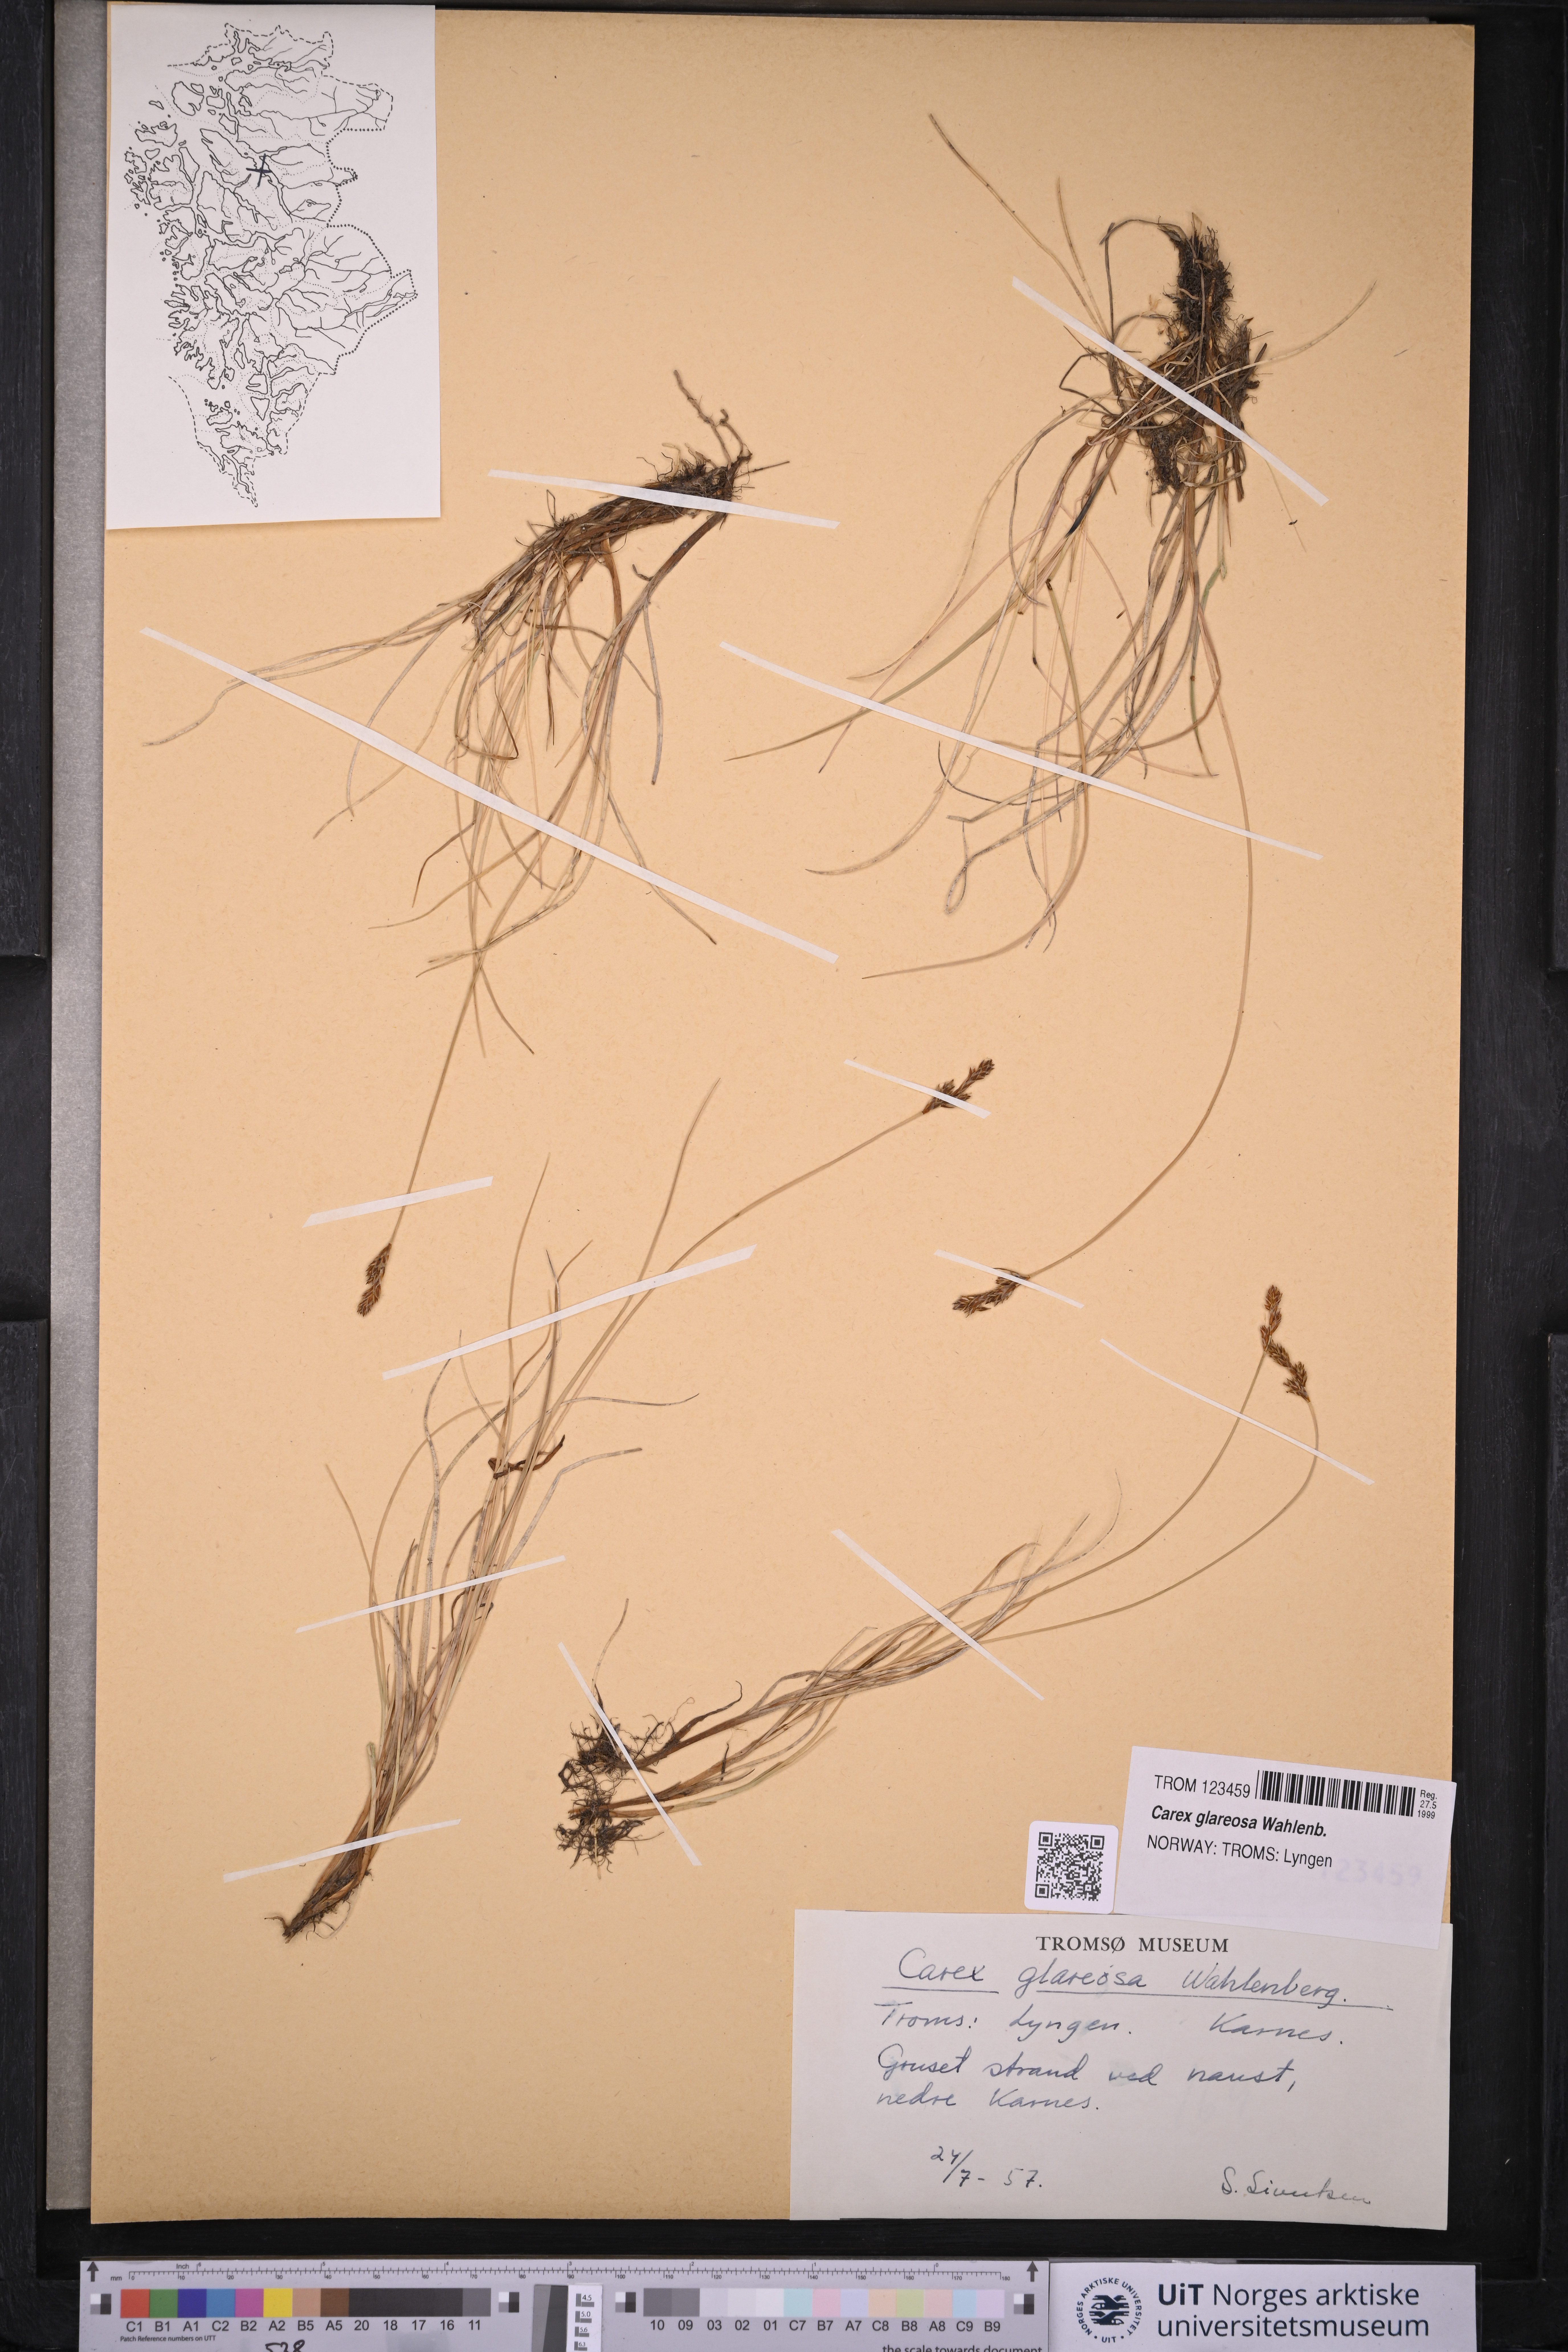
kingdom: Plantae
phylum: Tracheophyta
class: Liliopsida
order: Poales
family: Cyperaceae
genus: Carex
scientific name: Carex glareosa
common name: Clustered sedge
